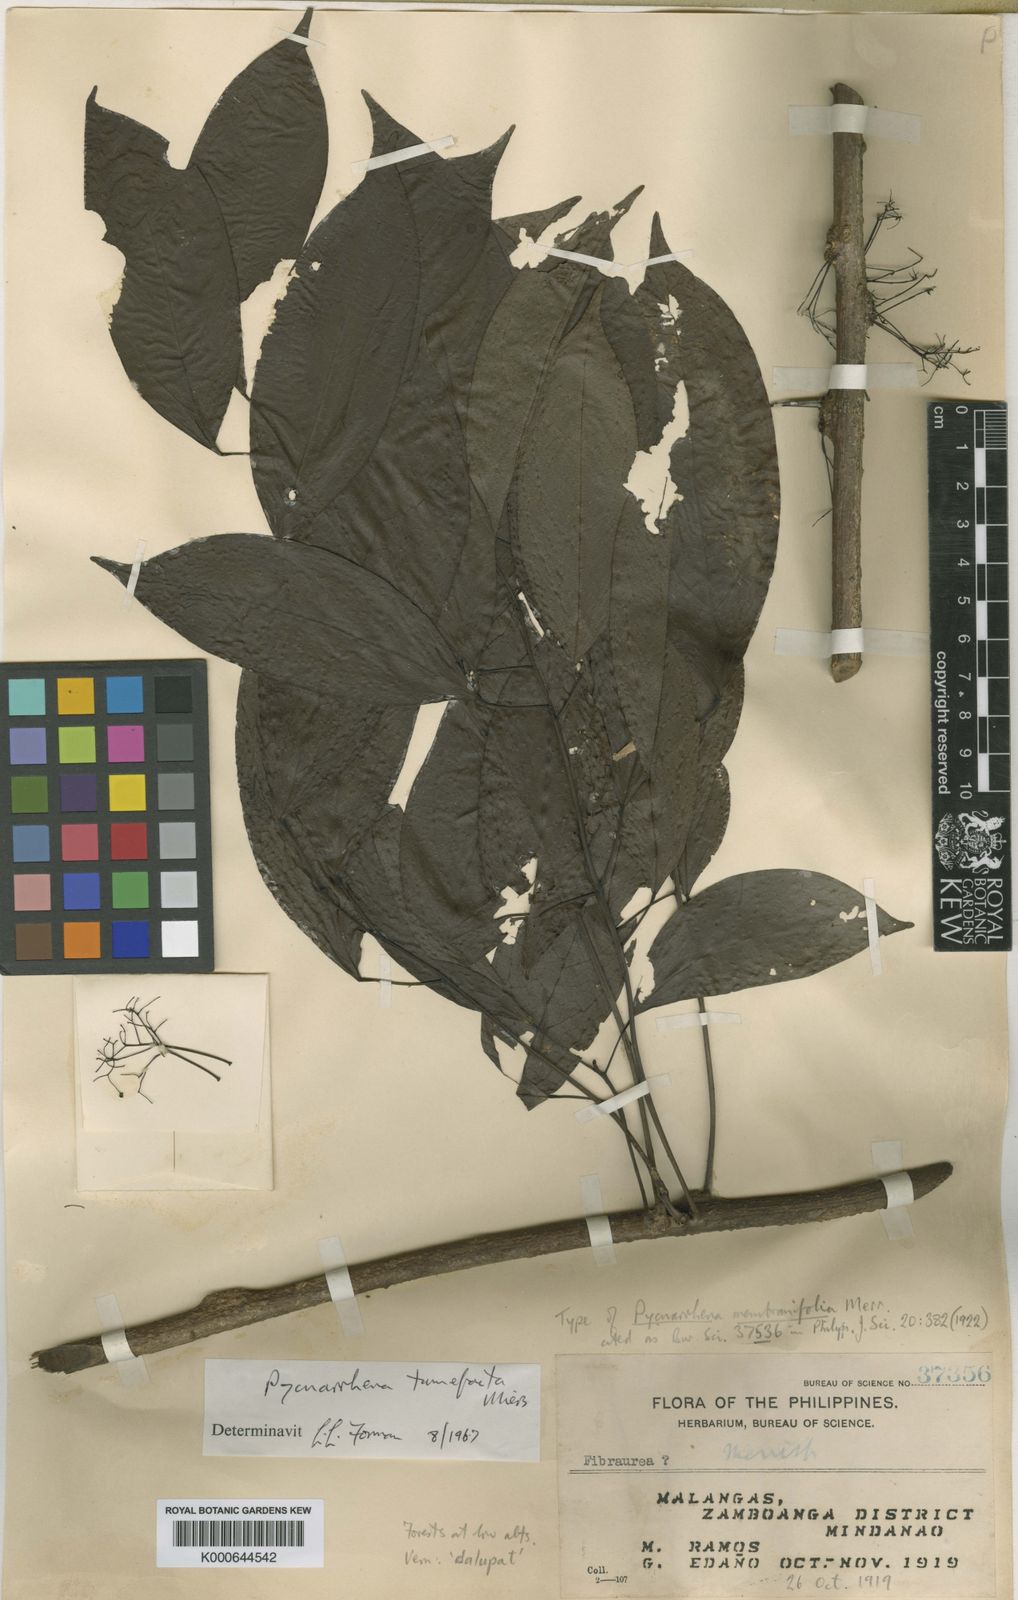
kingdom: Plantae
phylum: Tracheophyta
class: Magnoliopsida
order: Ranunculales
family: Menispermaceae
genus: Pycnarrhena
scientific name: Pycnarrhena tumefacta
